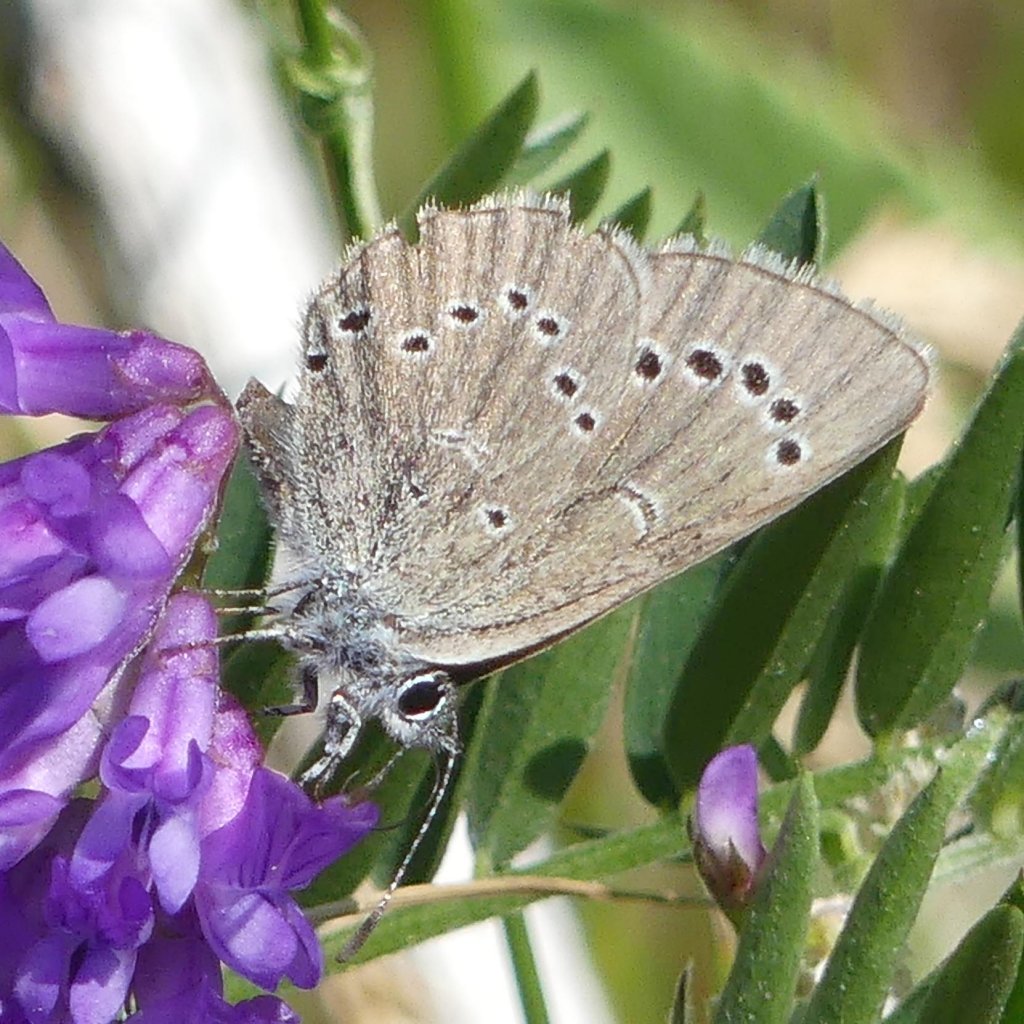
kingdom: Animalia
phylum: Arthropoda
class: Insecta
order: Lepidoptera
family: Lycaenidae
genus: Glaucopsyche
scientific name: Glaucopsyche lygdamus
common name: Silvery Blue
